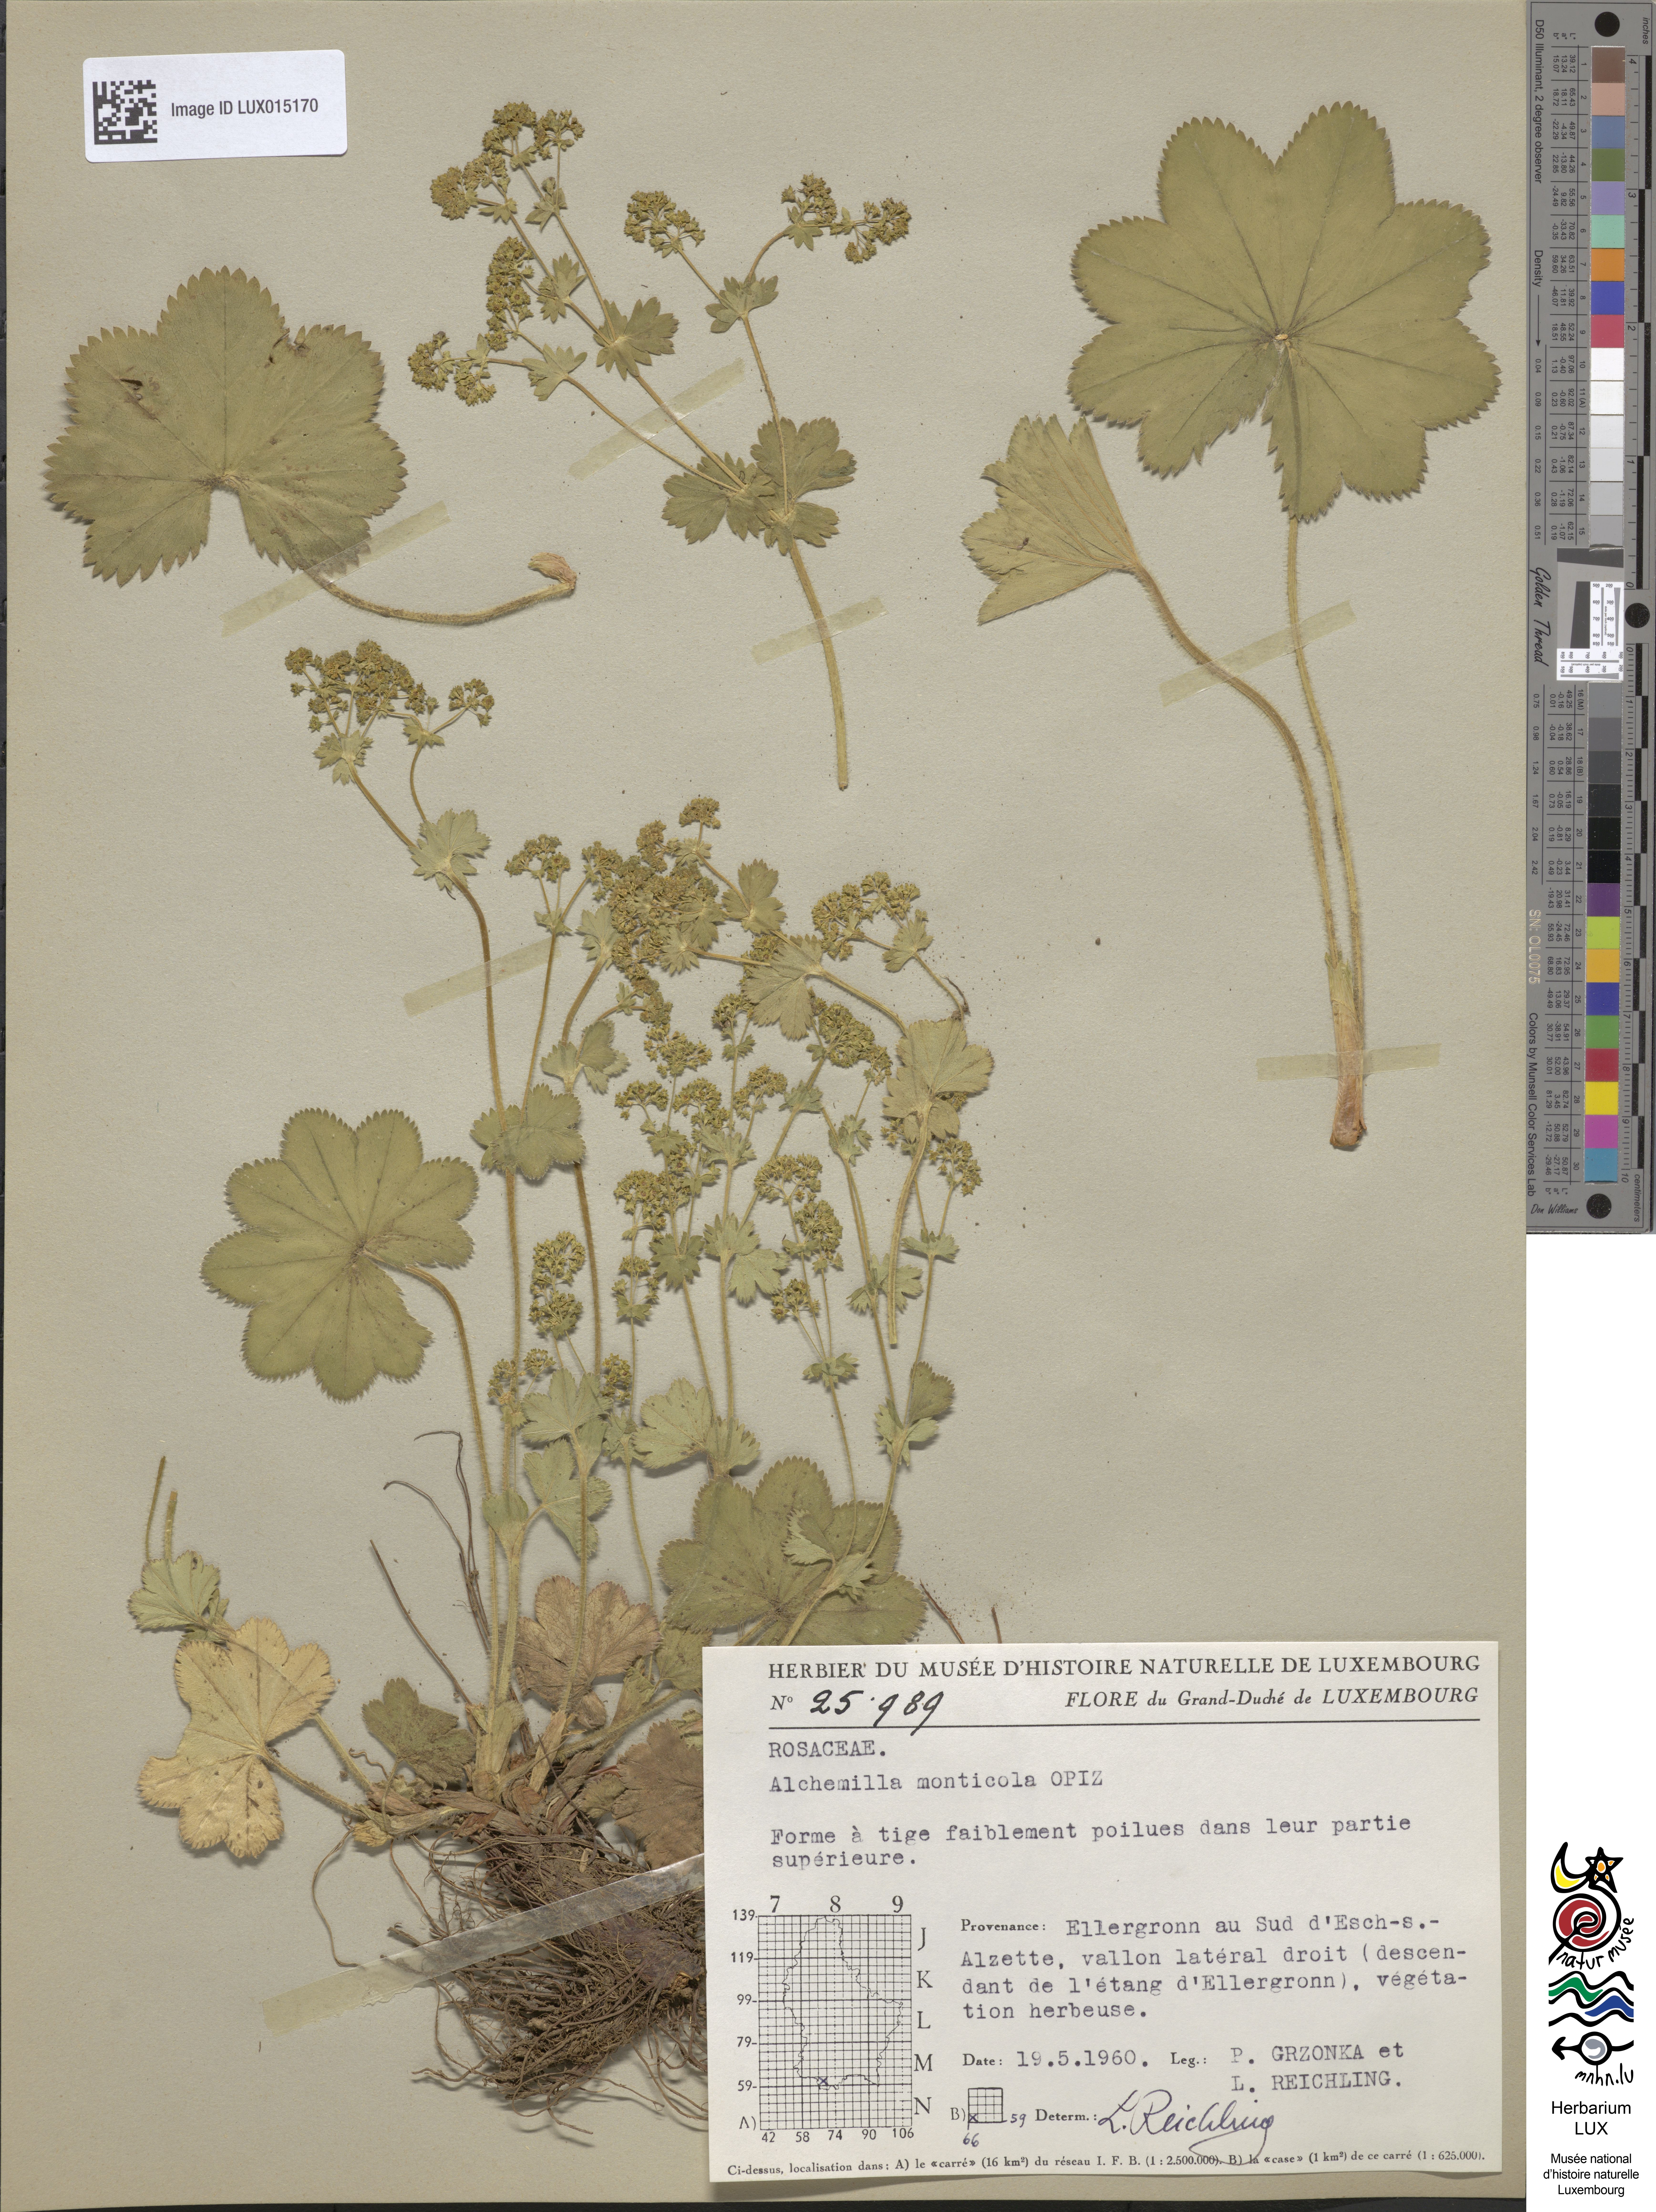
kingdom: Plantae
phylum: Tracheophyta
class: Magnoliopsida
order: Rosales
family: Rosaceae
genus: Alchemilla
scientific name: Alchemilla monticola
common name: Hairy lady's mantle
